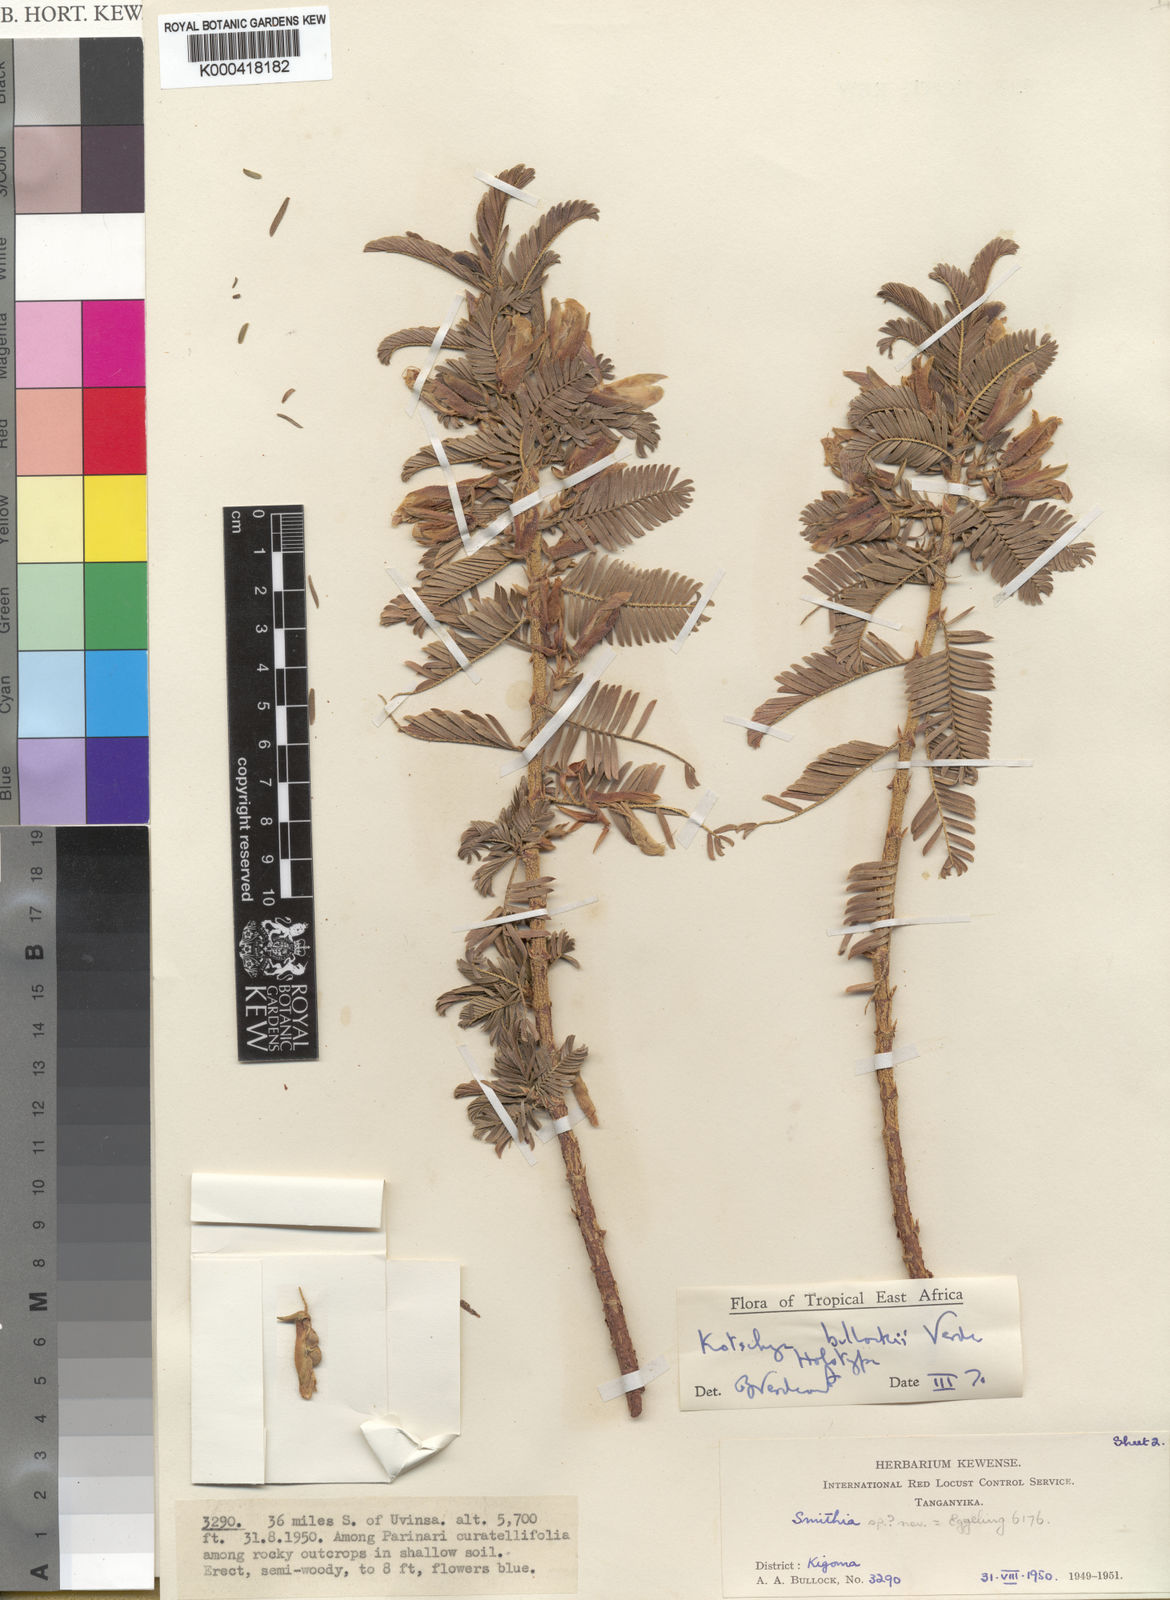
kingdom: Plantae
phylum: Tracheophyta
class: Magnoliopsida
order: Fabales
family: Fabaceae
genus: Kotschya
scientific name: Kotschya bullockii
